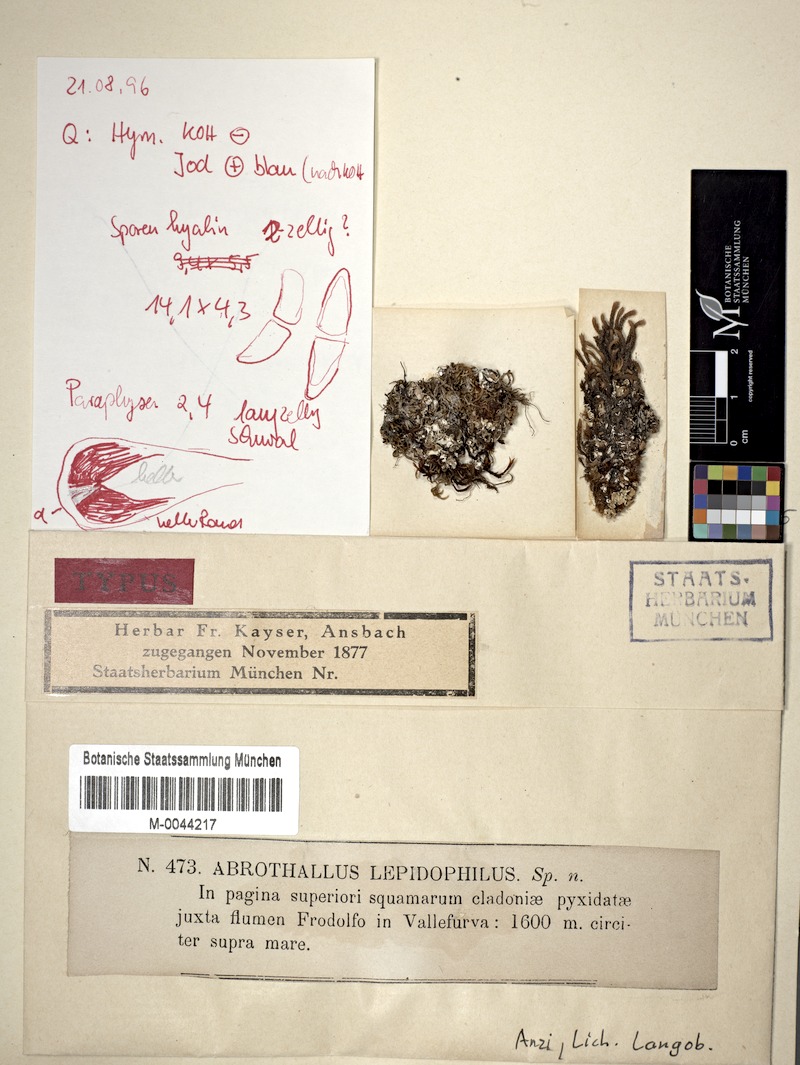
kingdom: Fungi
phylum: Ascomycota
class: Lecanoromycetes
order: Lecanorales
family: Cladoniaceae
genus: Cladonia
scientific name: Cladonia pyxidata
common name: Pebbled pixie cup
